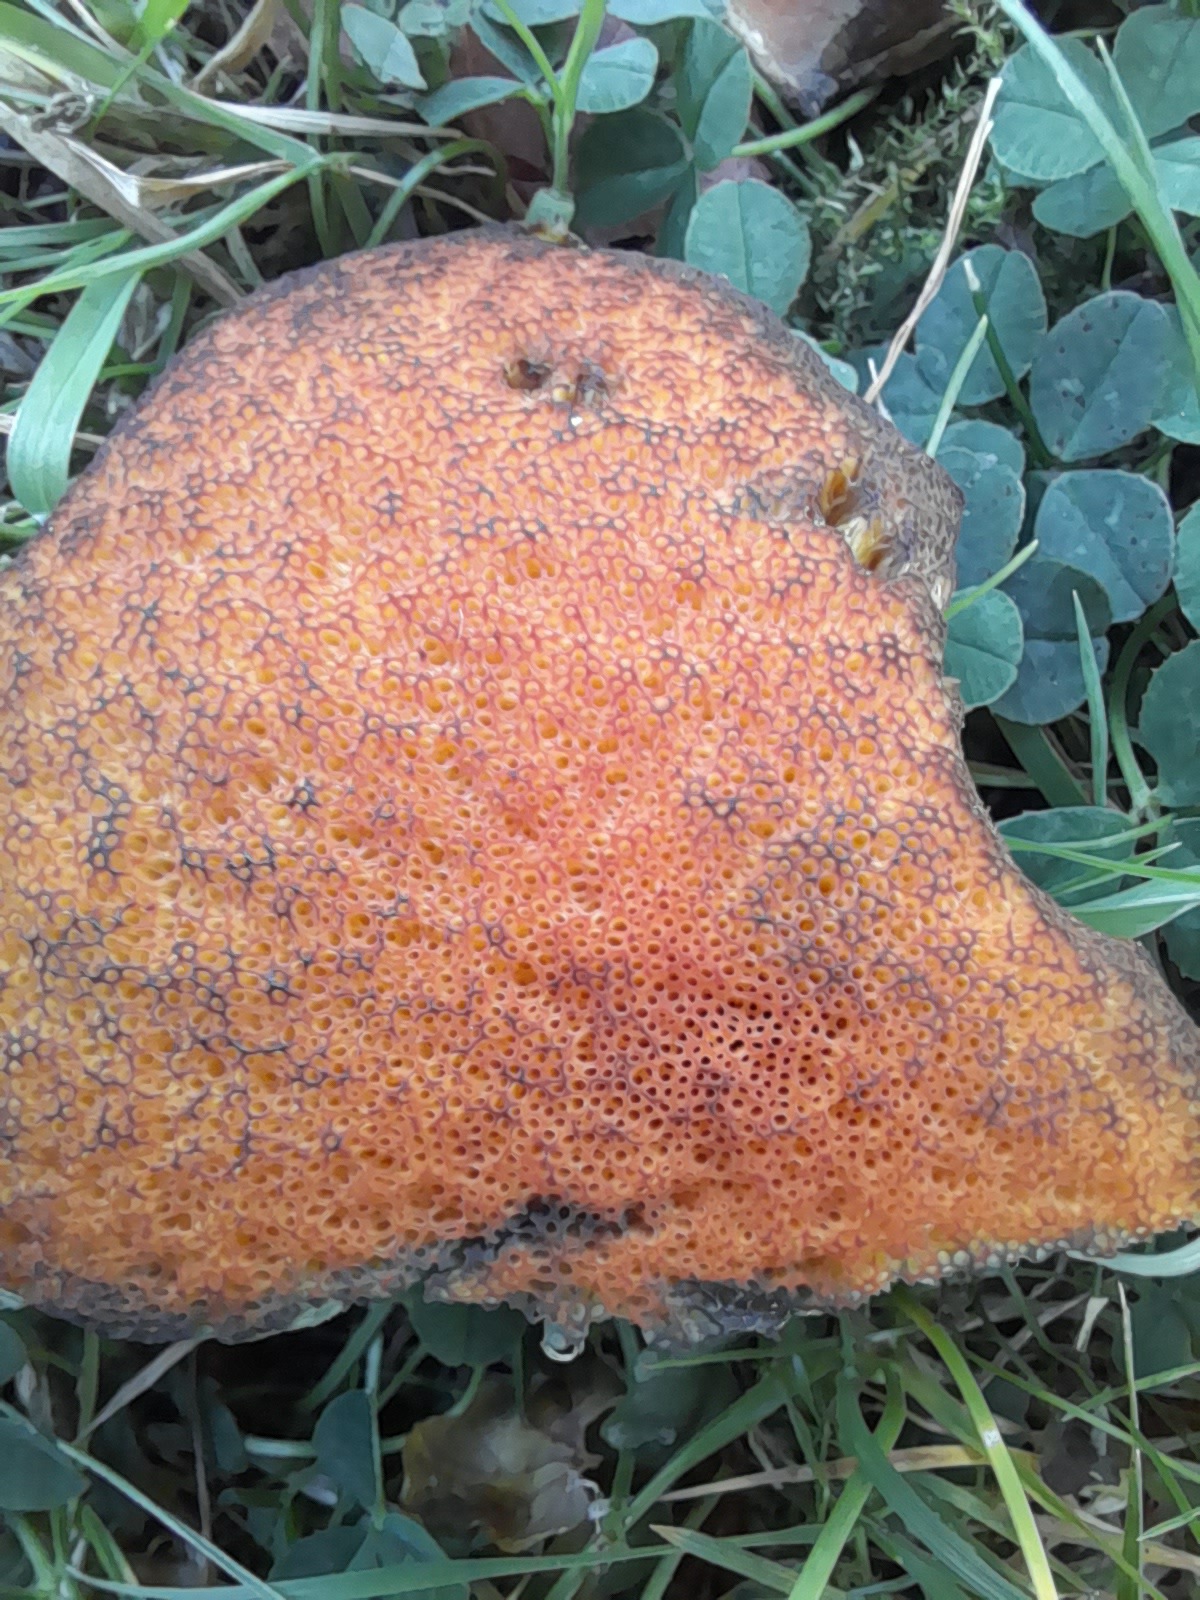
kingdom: Fungi
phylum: Basidiomycota
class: Agaricomycetes
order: Boletales
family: Boletaceae
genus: Suillellus
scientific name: Suillellus luridus
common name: netstokket indigorørhat
